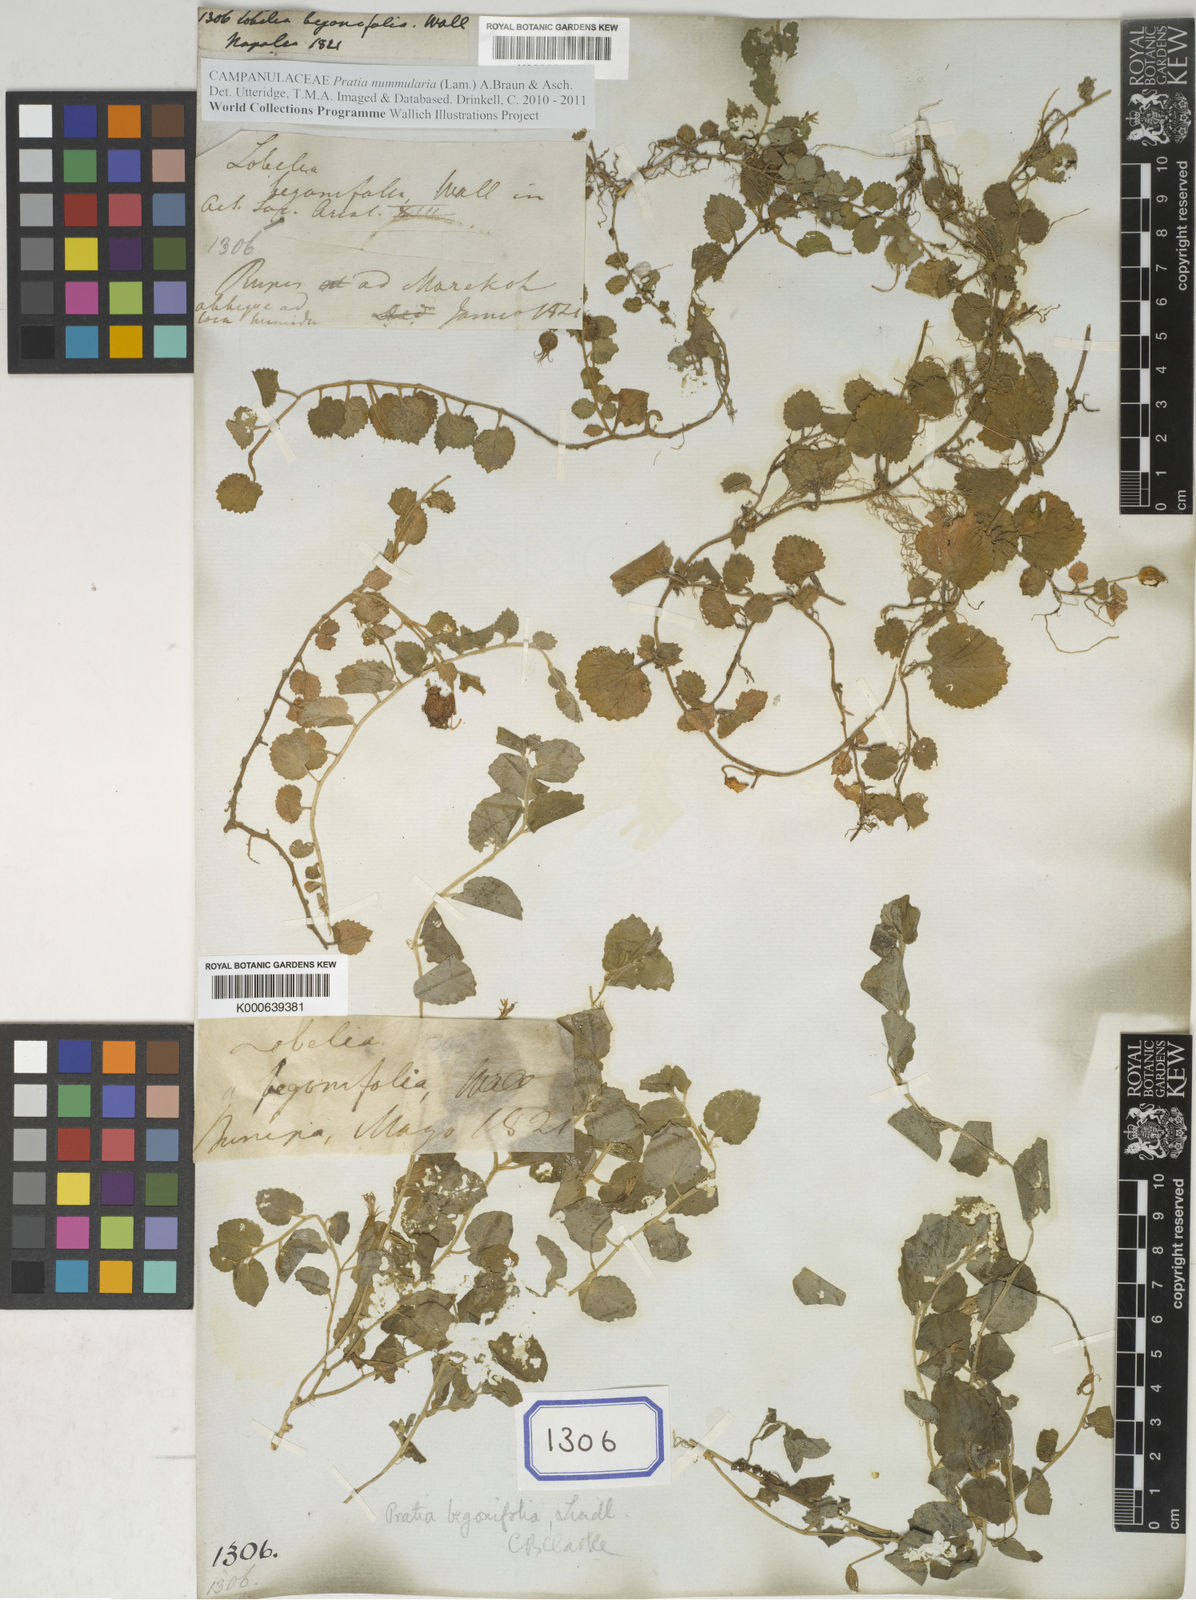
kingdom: Plantae
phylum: Tracheophyta
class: Magnoliopsida
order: Asterales
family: Campanulaceae
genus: Lobelia
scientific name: Lobelia nummularia
